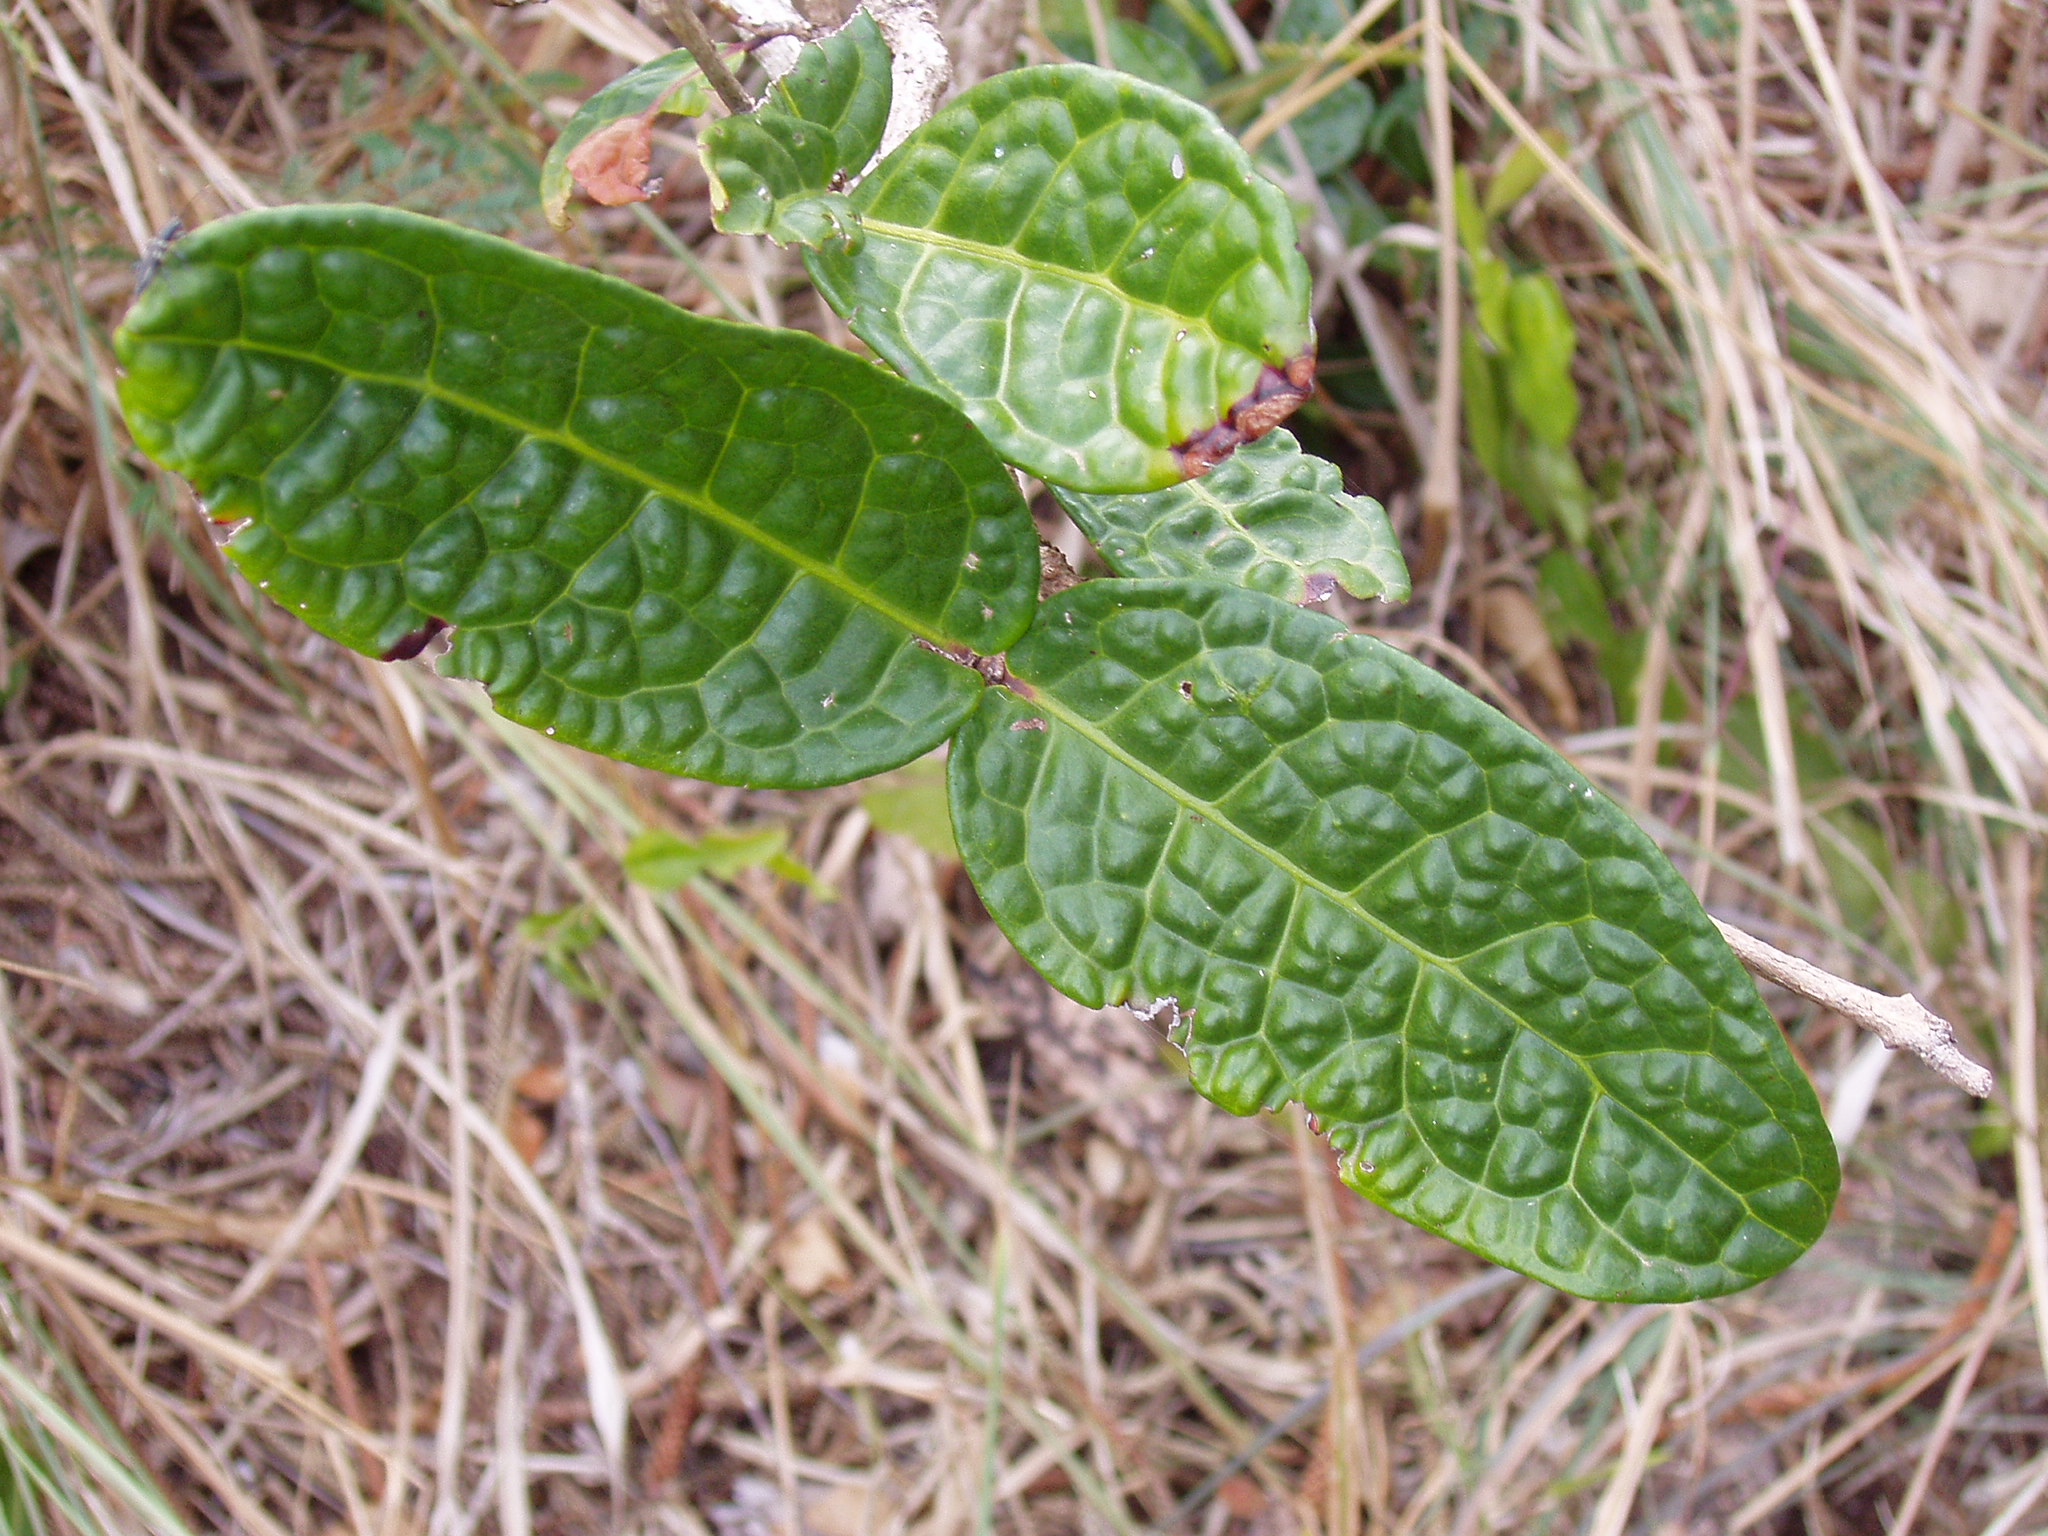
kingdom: Plantae
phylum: Tracheophyta
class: Magnoliopsida
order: Myrtales
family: Myrtaceae
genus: Eugenia
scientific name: Eugenia bullata
